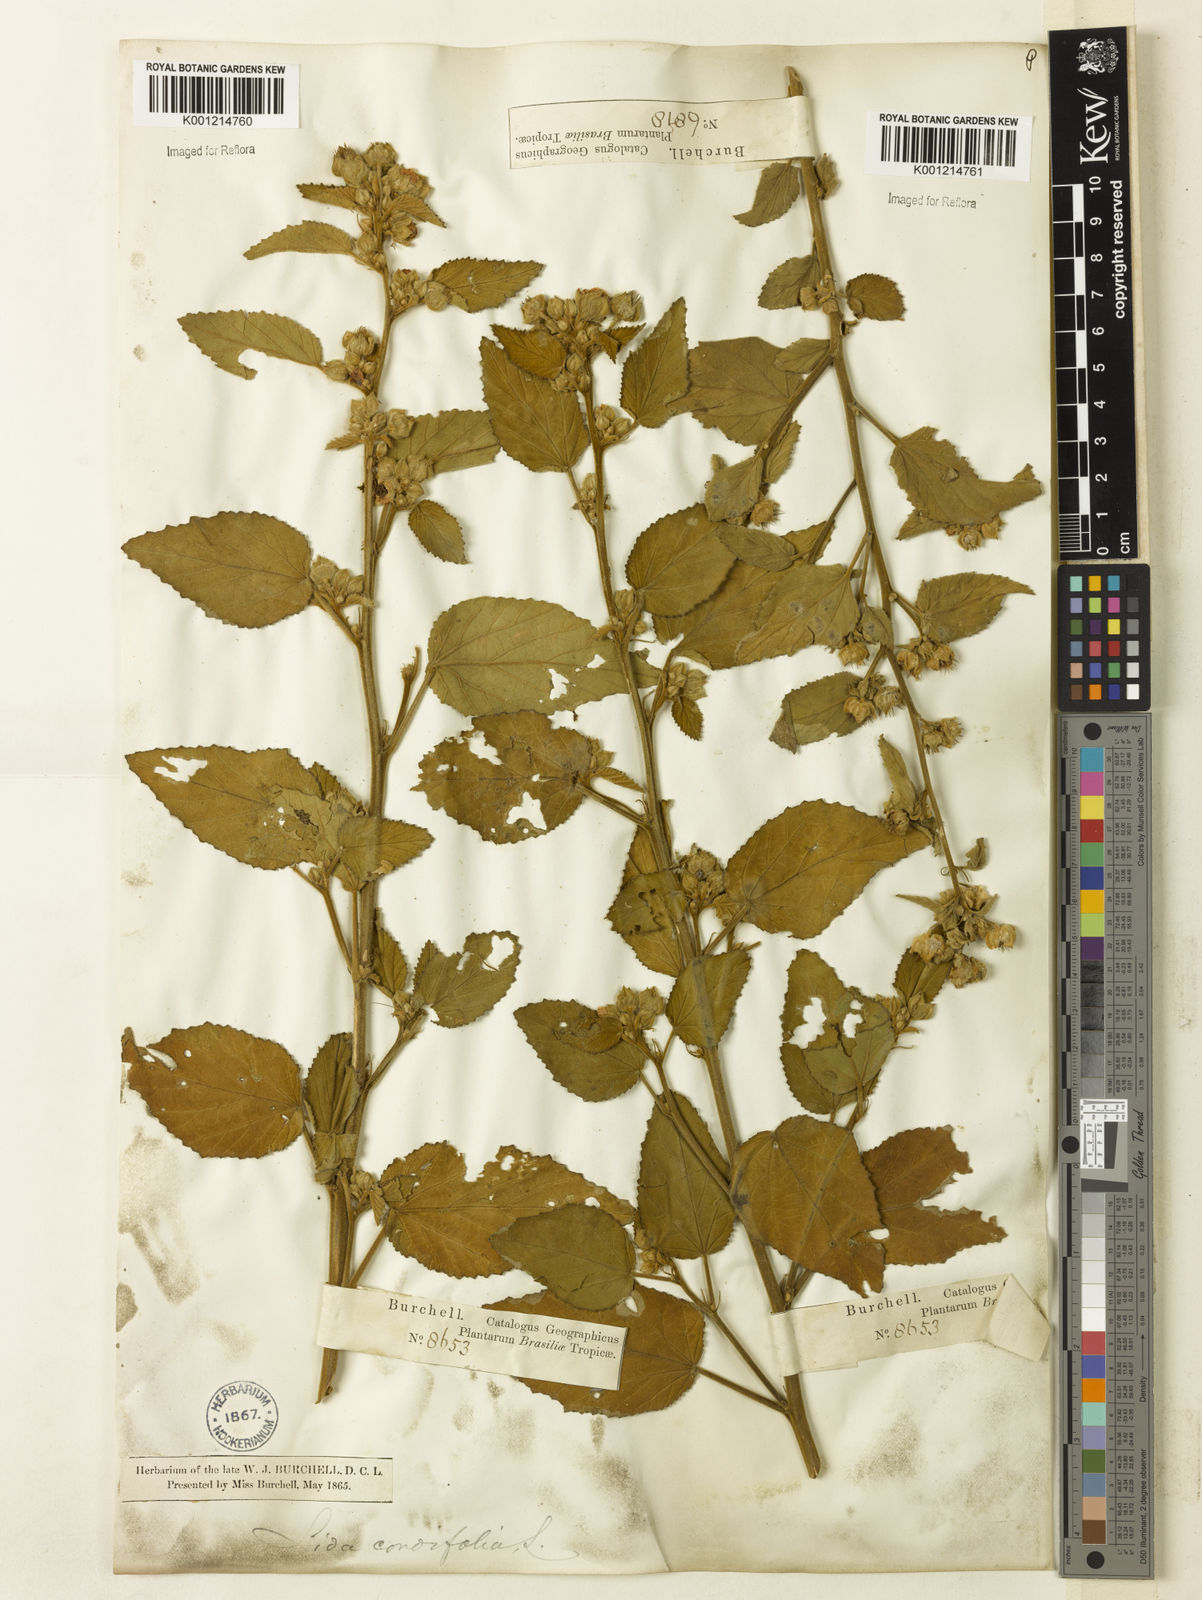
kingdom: Plantae
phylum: Tracheophyta
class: Magnoliopsida
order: Malvales
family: Malvaceae
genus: Sida
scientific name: Sida cordifolia
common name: Ilima
